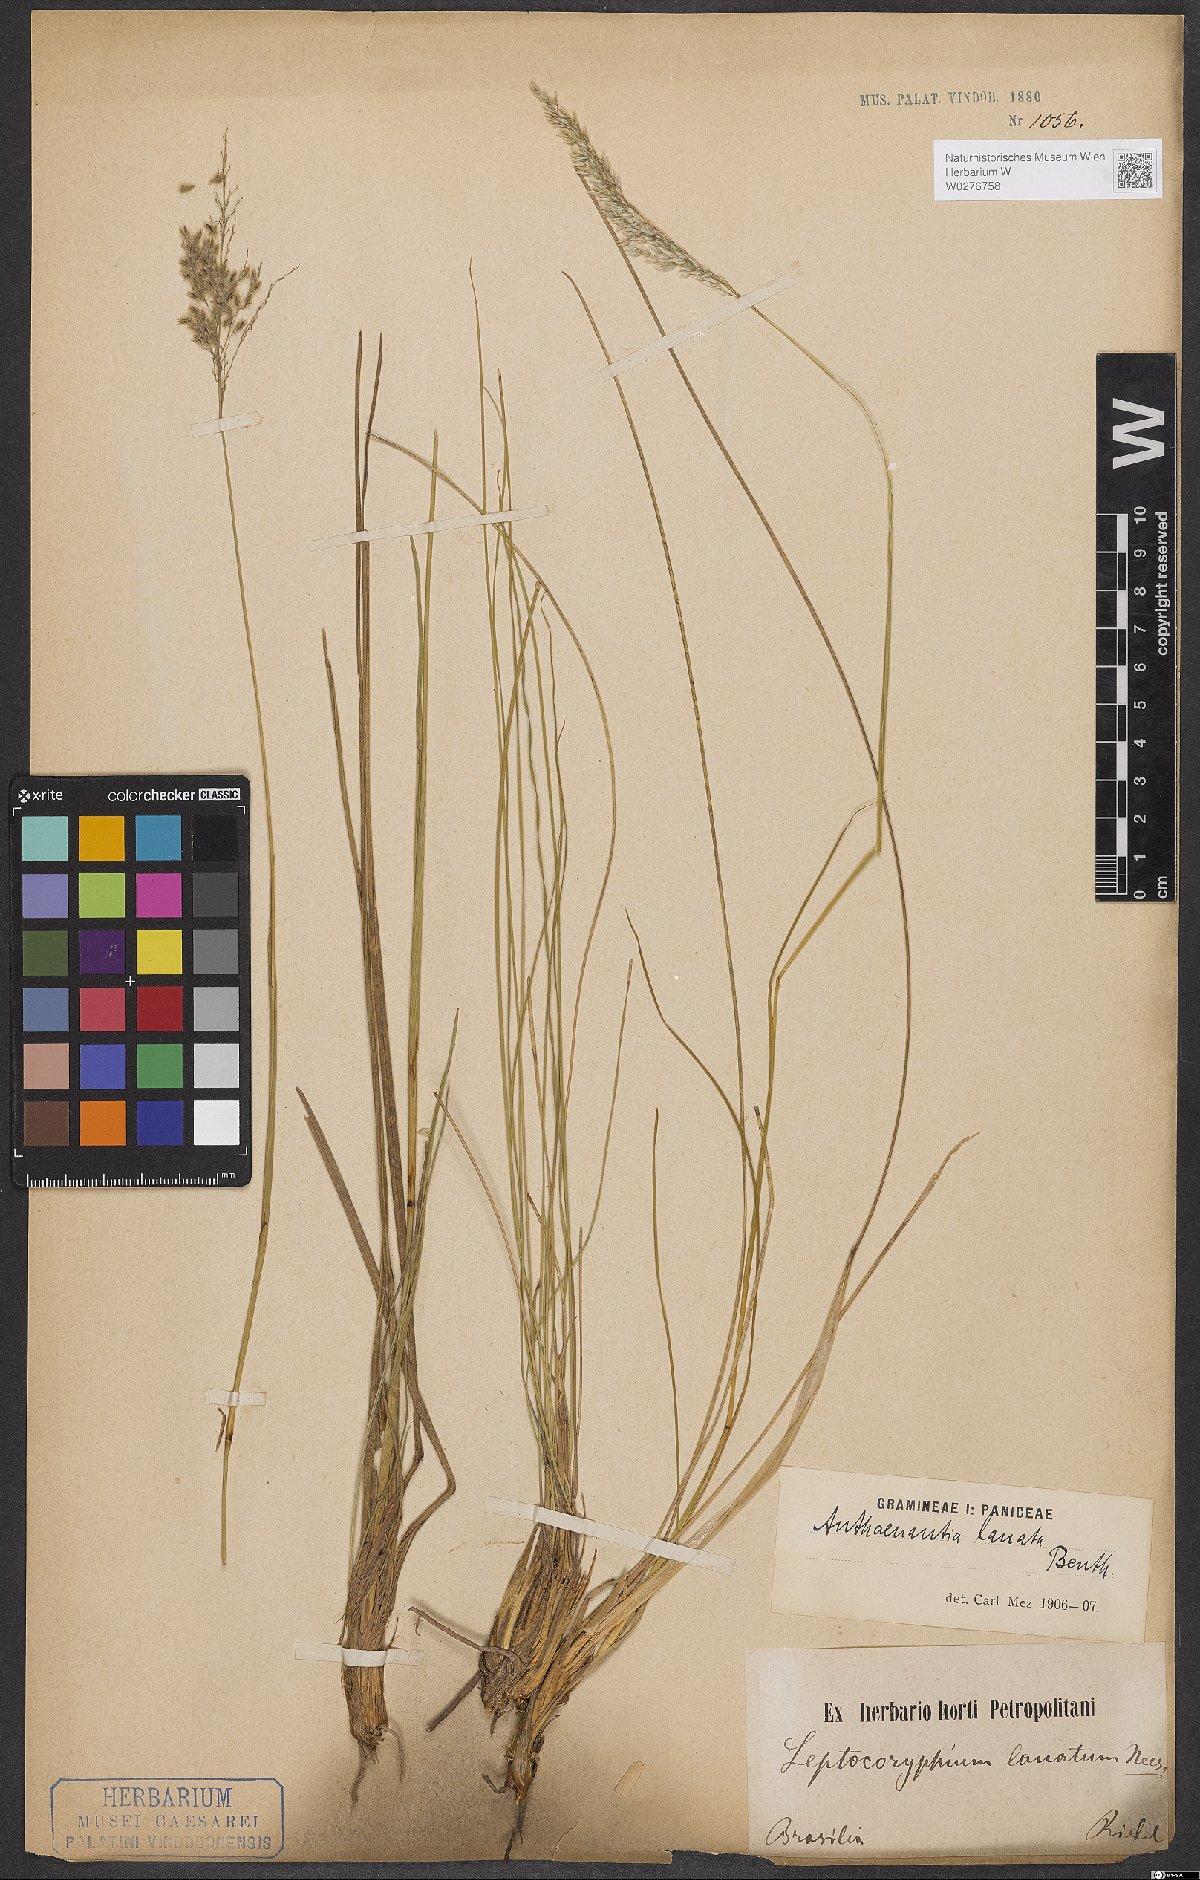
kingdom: Plantae
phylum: Tracheophyta
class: Liliopsida
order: Poales
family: Poaceae
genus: Anthaenantia
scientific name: Anthaenantia lanata
